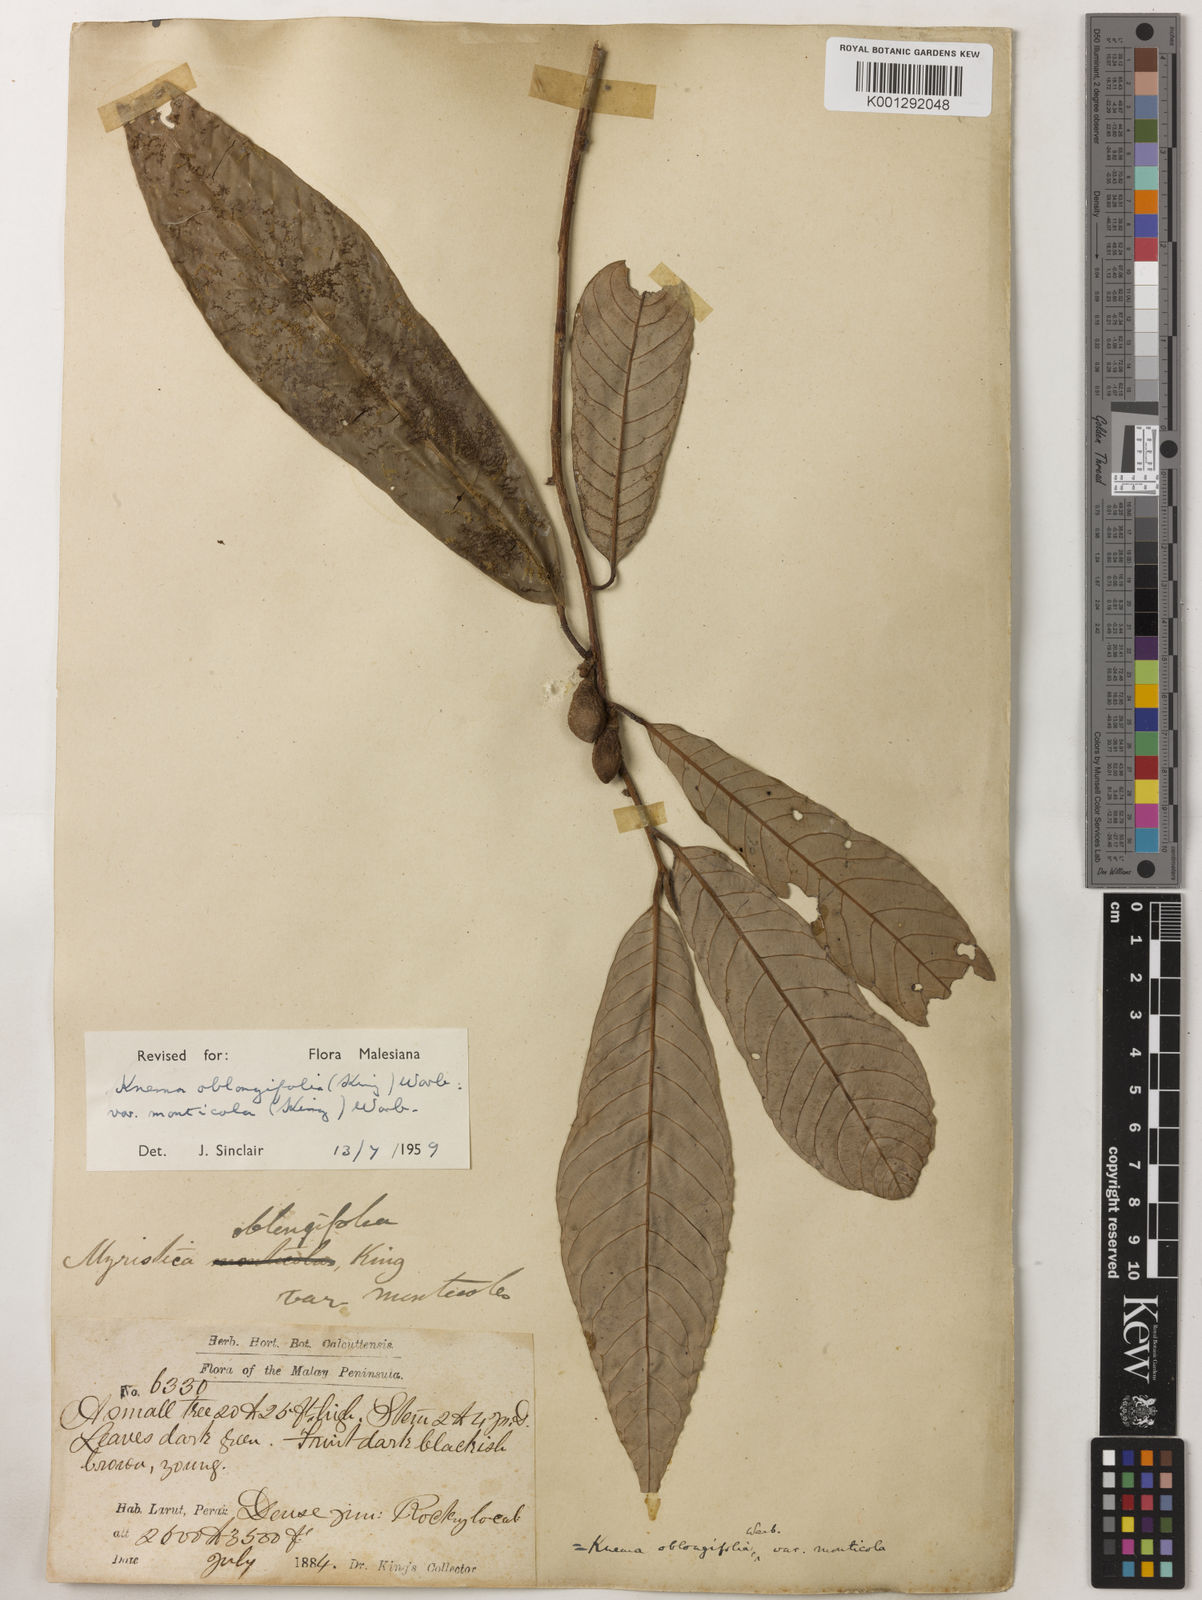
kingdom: Plantae
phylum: Tracheophyta
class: Magnoliopsida
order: Magnoliales
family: Myristicaceae
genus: Knema
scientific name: Knema
